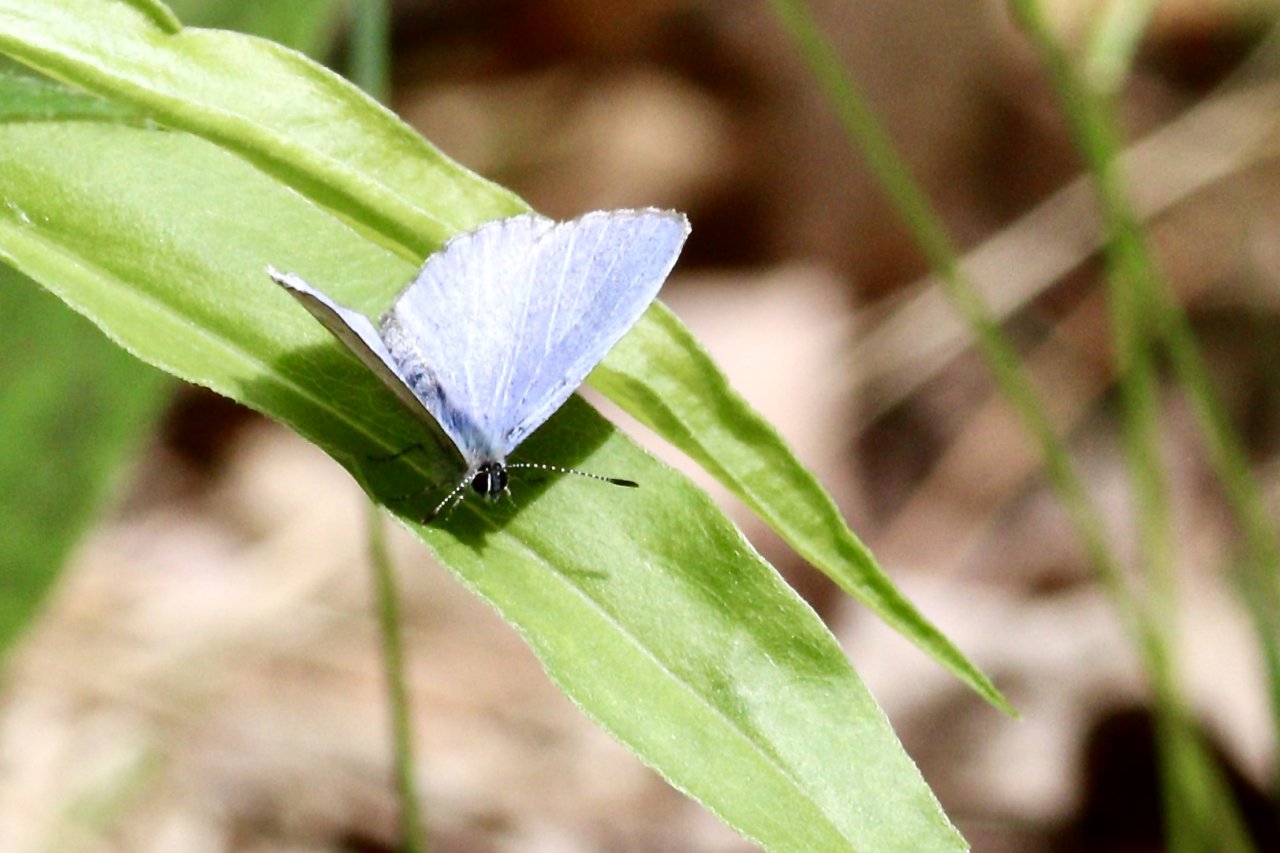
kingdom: Animalia
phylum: Arthropoda
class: Insecta
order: Lepidoptera
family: Lycaenidae
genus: Celastrina
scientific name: Celastrina lucia
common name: Northern Spring Azure
